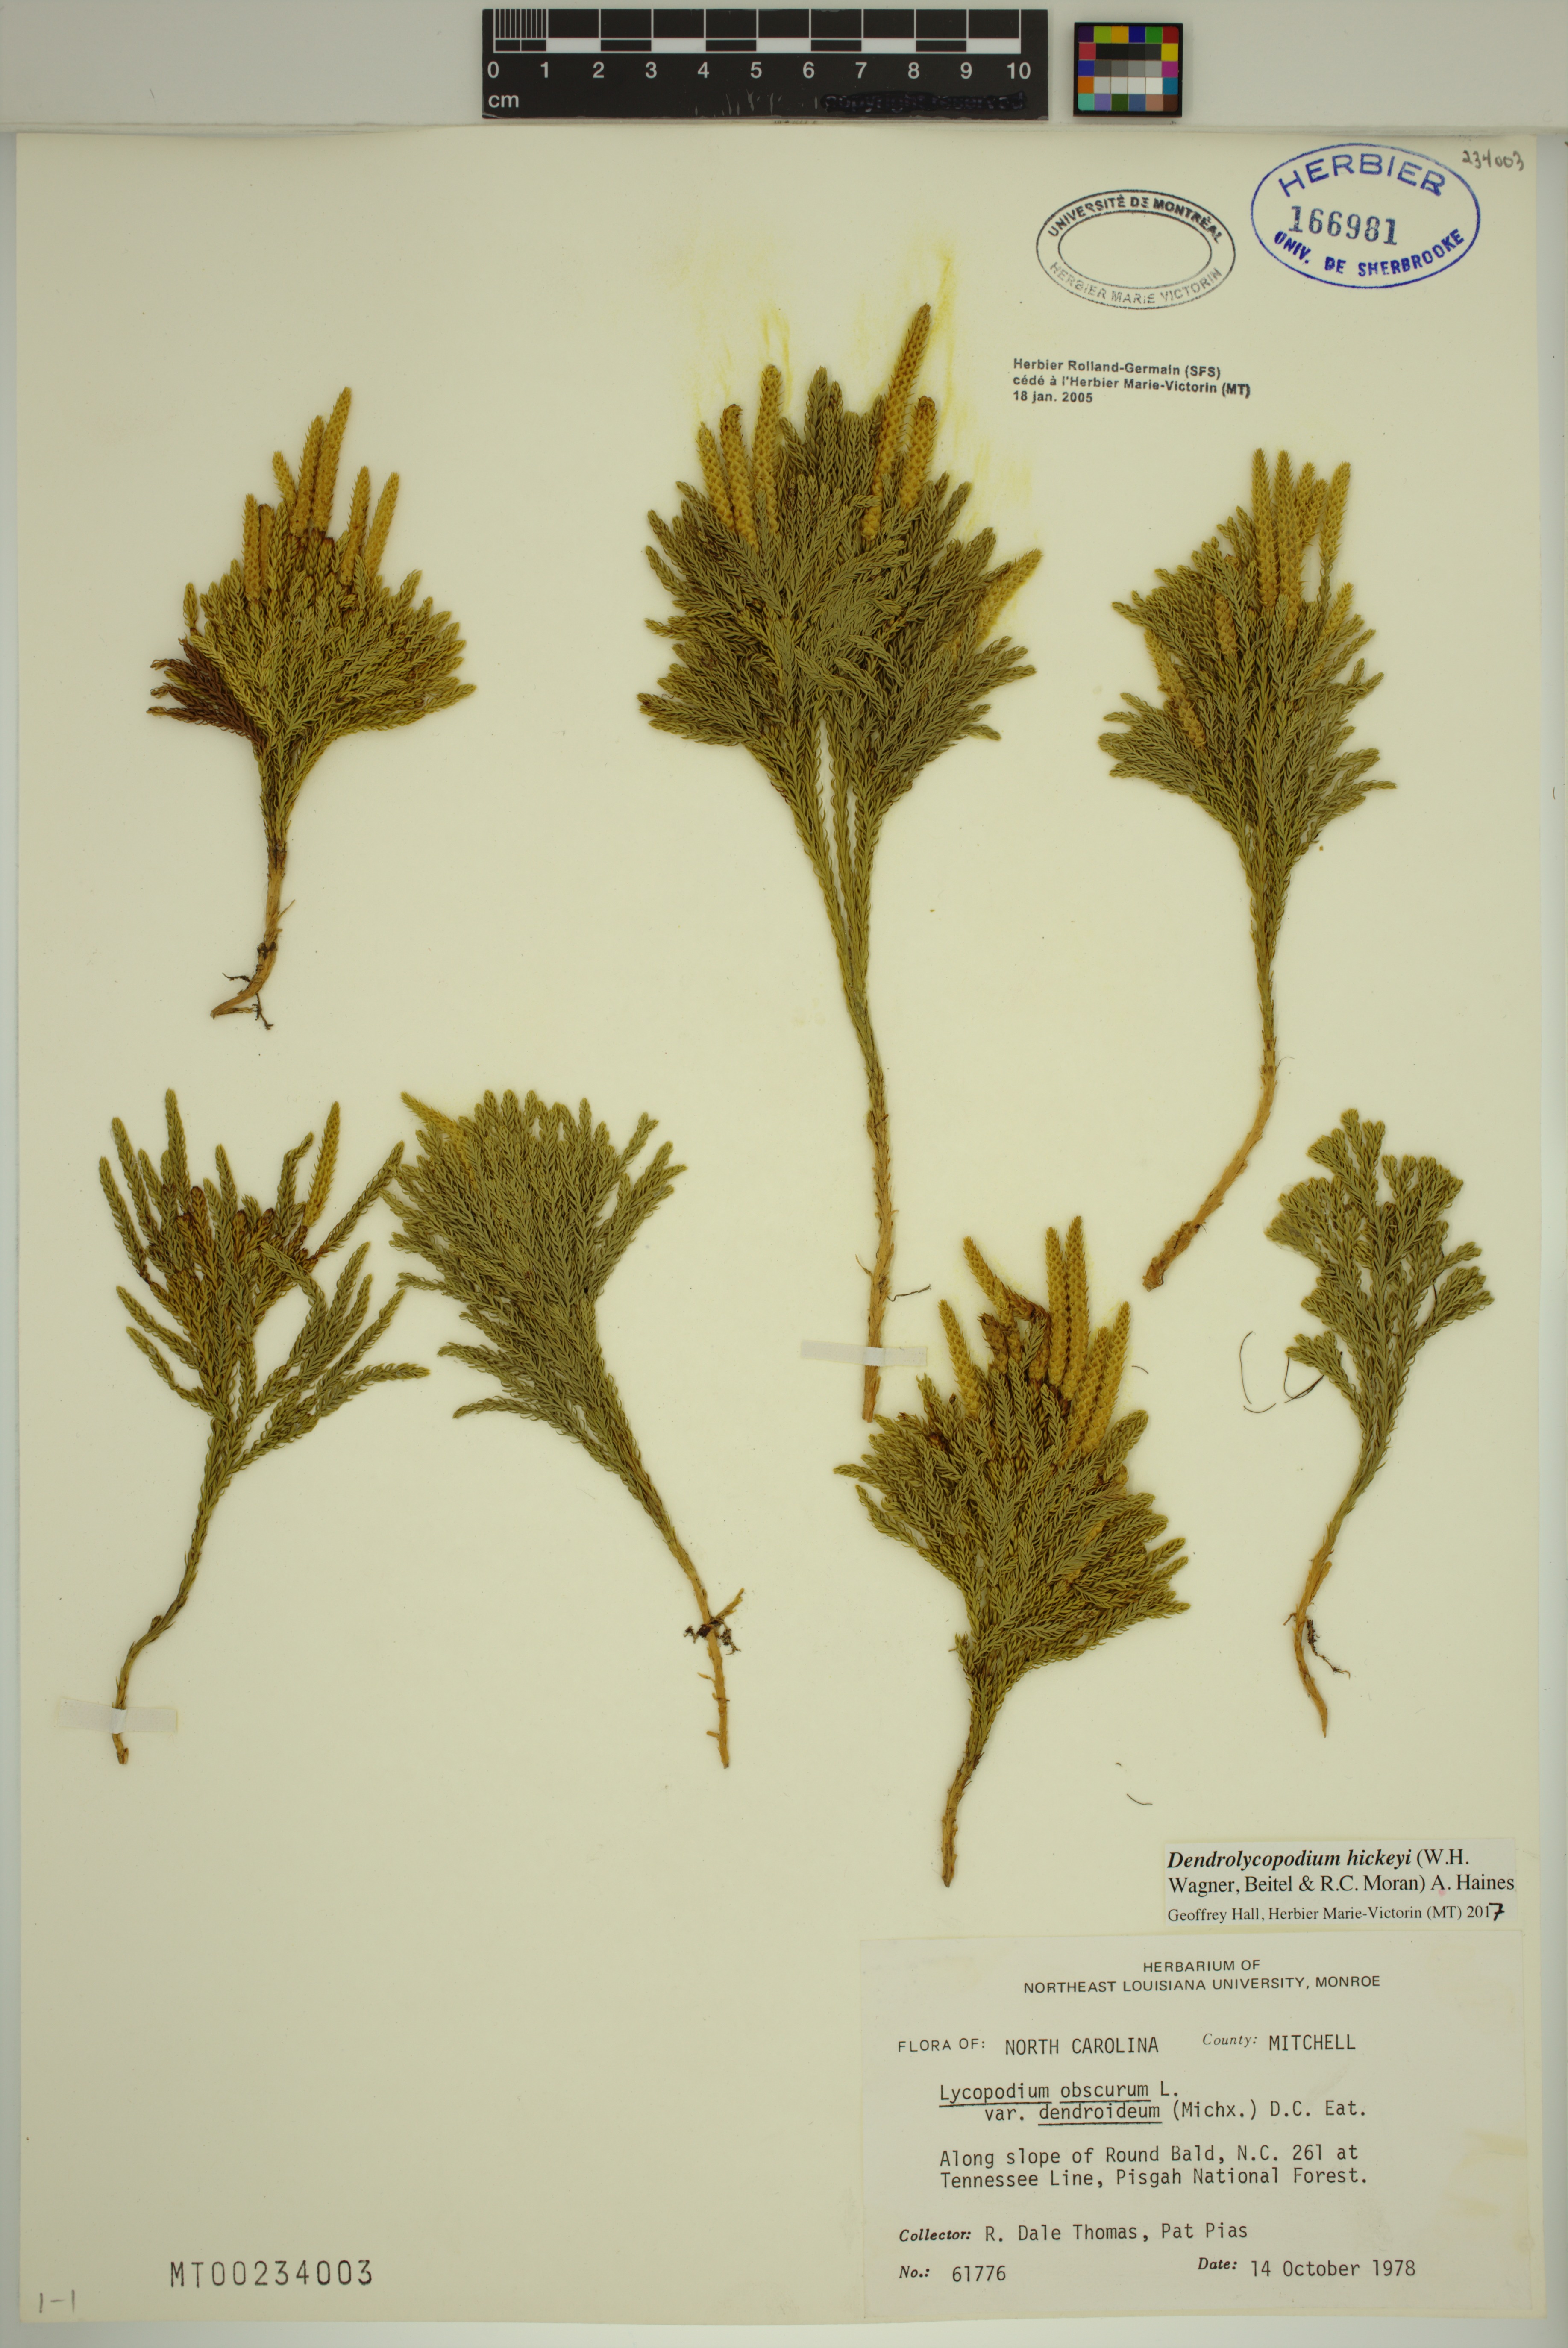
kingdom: Plantae
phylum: Tracheophyta
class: Lycopodiopsida
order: Lycopodiales
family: Lycopodiaceae
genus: Dendrolycopodium
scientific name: Dendrolycopodium hickeyi
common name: Hickey's clubmoss
